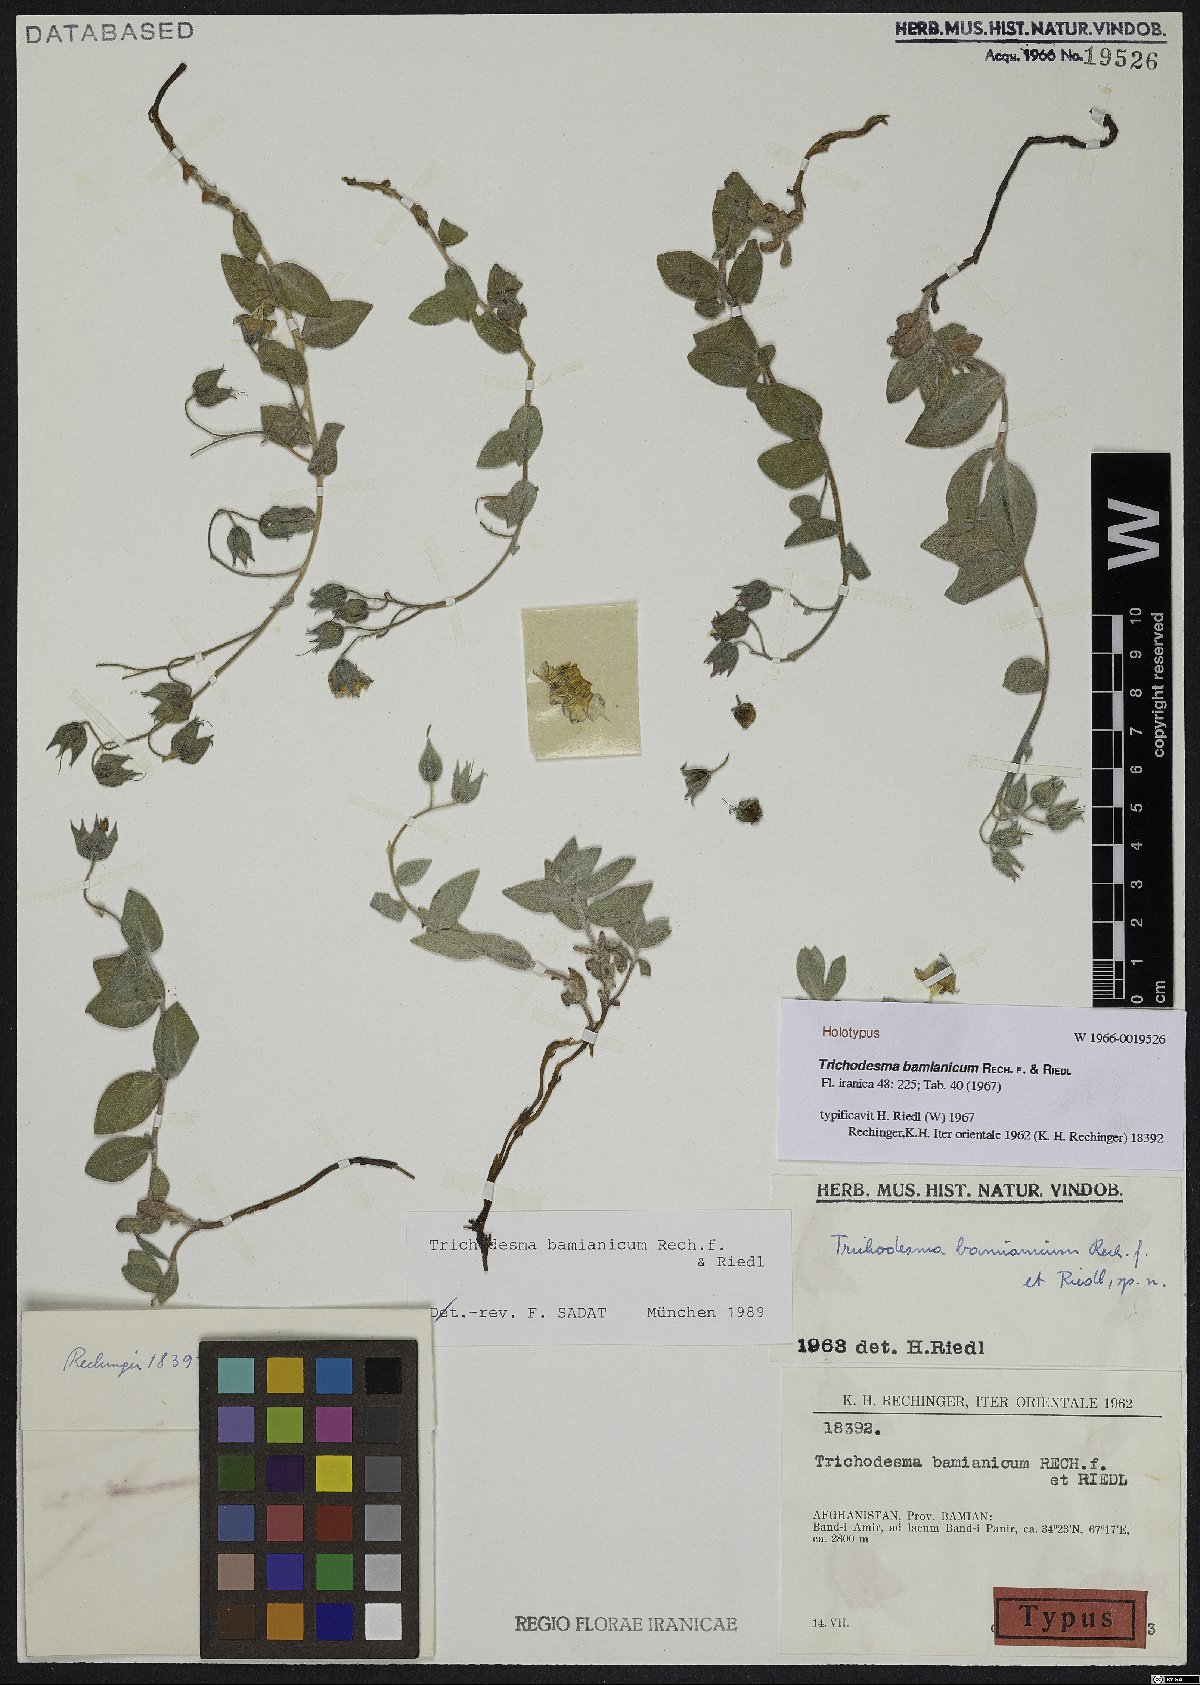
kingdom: Plantae
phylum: Tracheophyta
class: Magnoliopsida
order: Boraginales
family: Boraginaceae
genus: Trichodesma
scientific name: Trichodesma bamianicum
